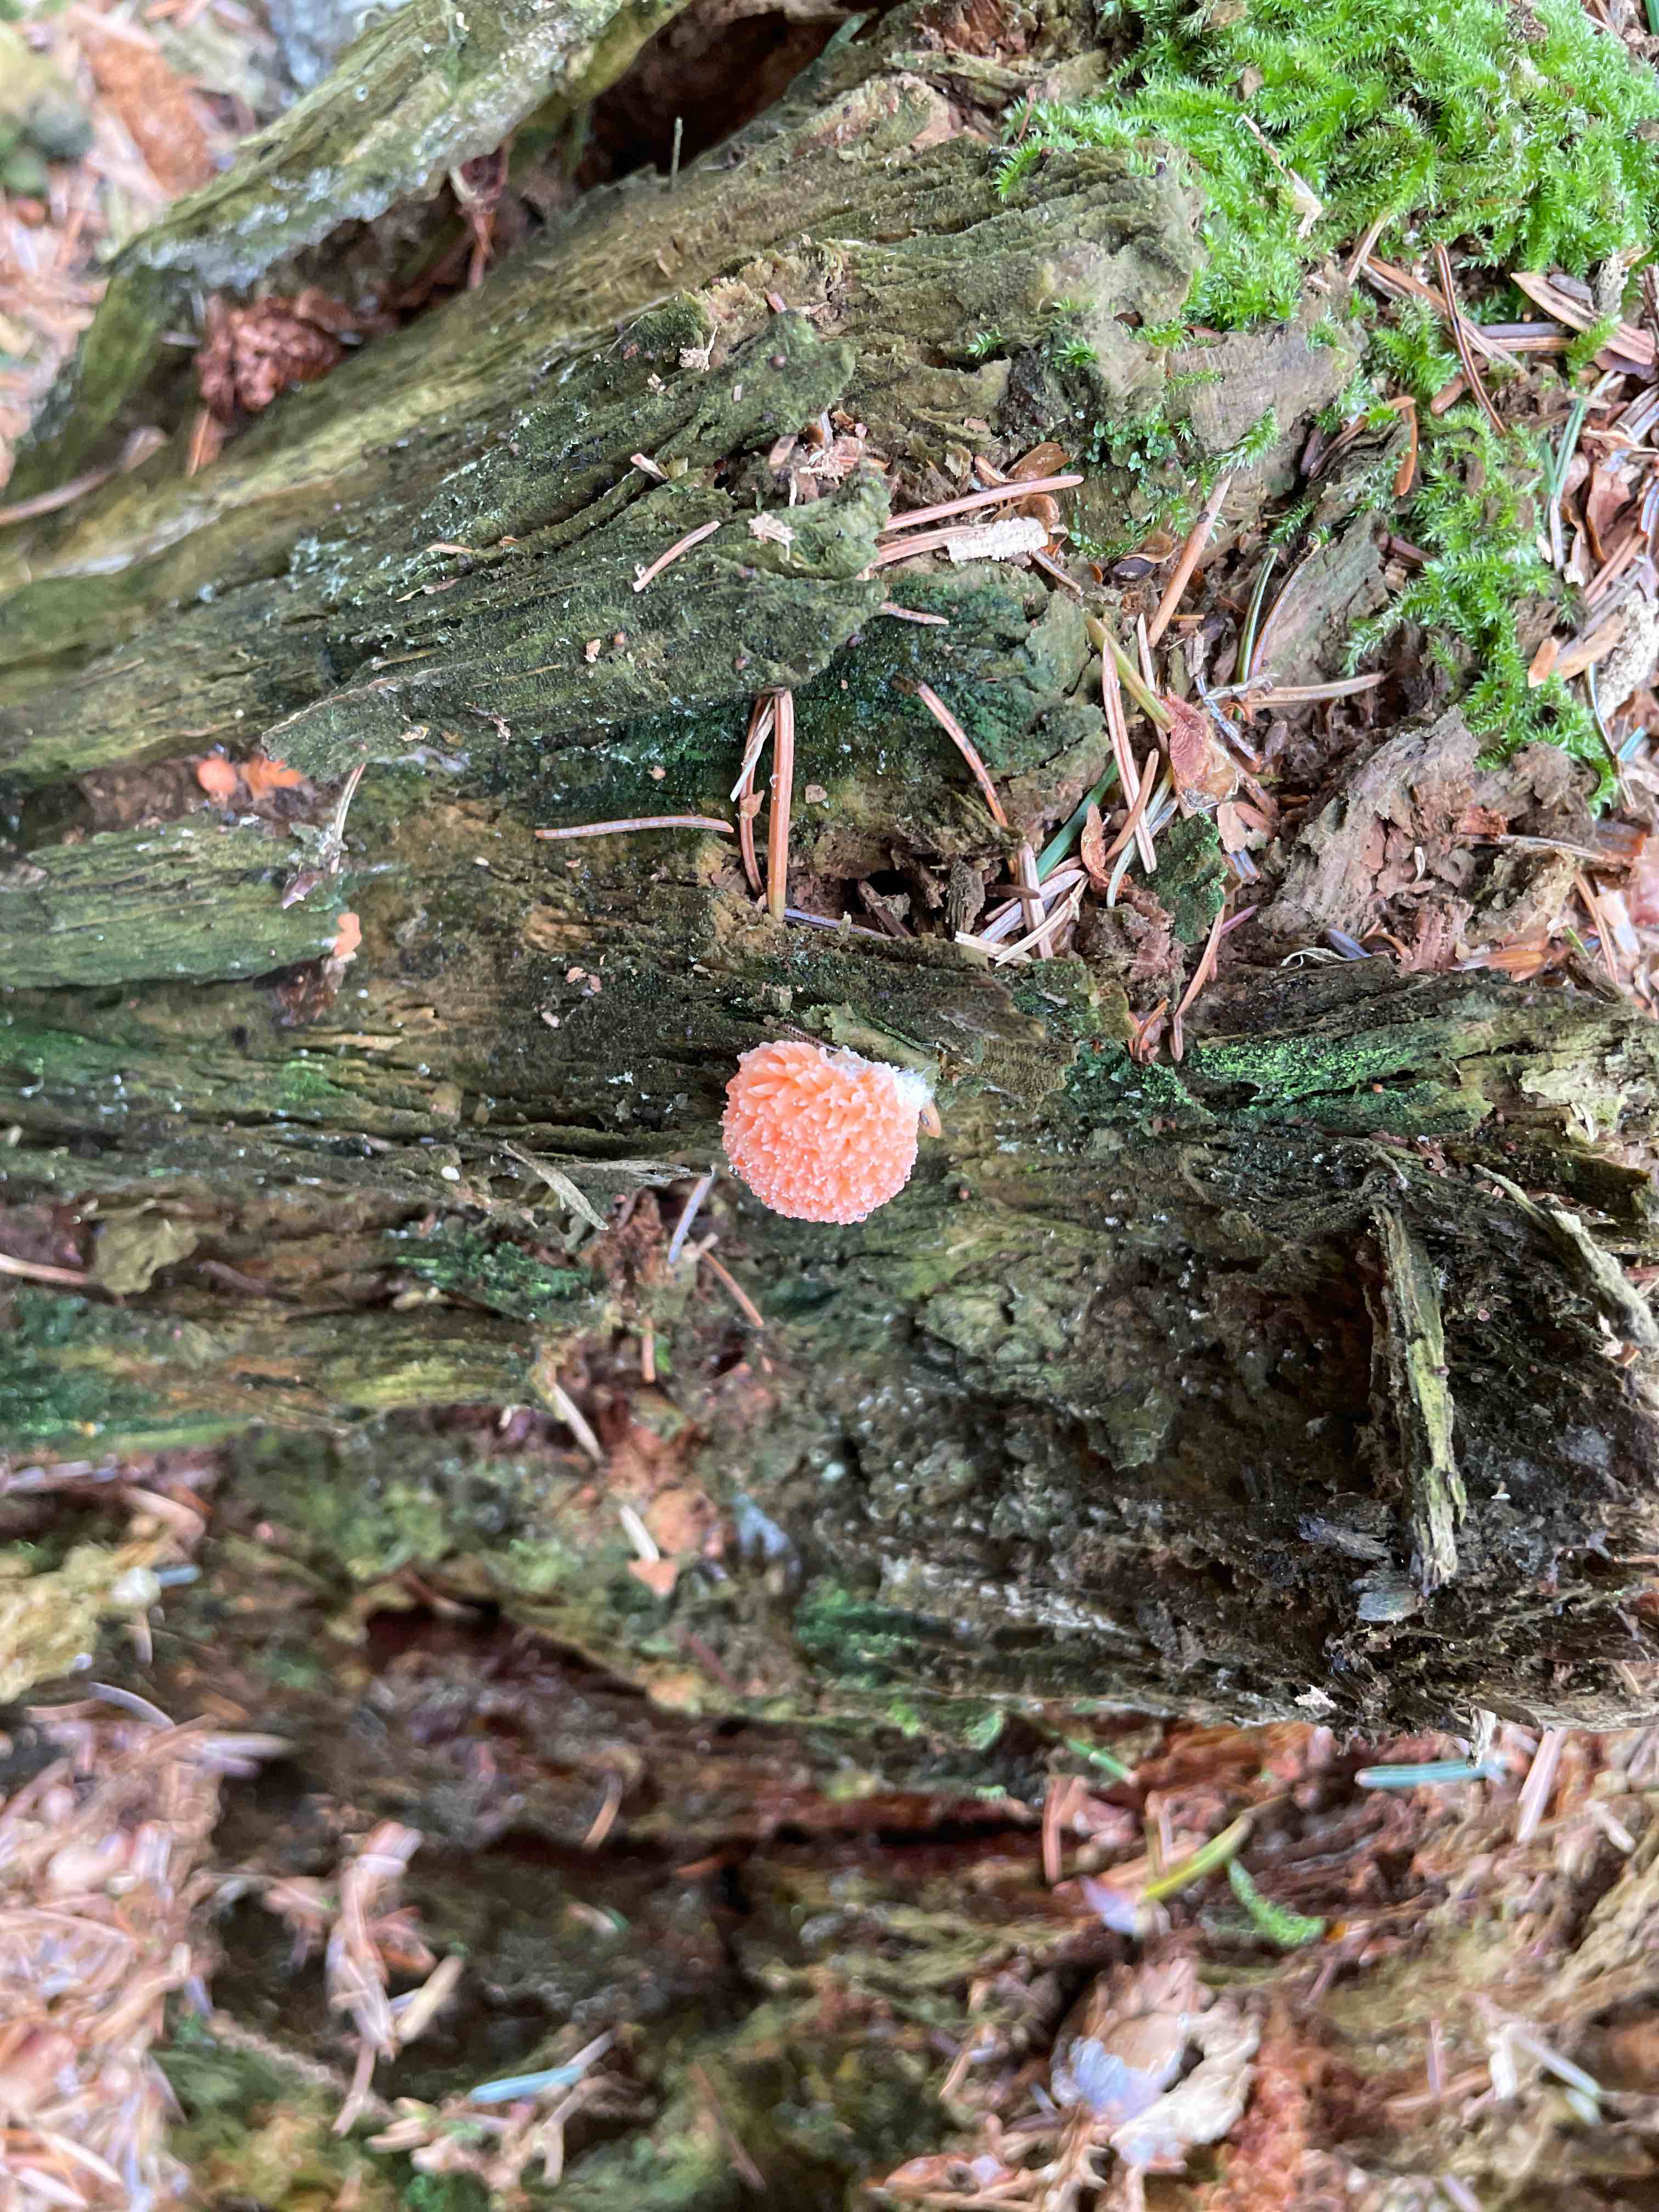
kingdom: Protozoa
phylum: Mycetozoa
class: Myxomycetes
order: Cribrariales
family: Tubiferaceae
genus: Tubifera
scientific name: Tubifera ferruginosa
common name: kanel-støvrør
